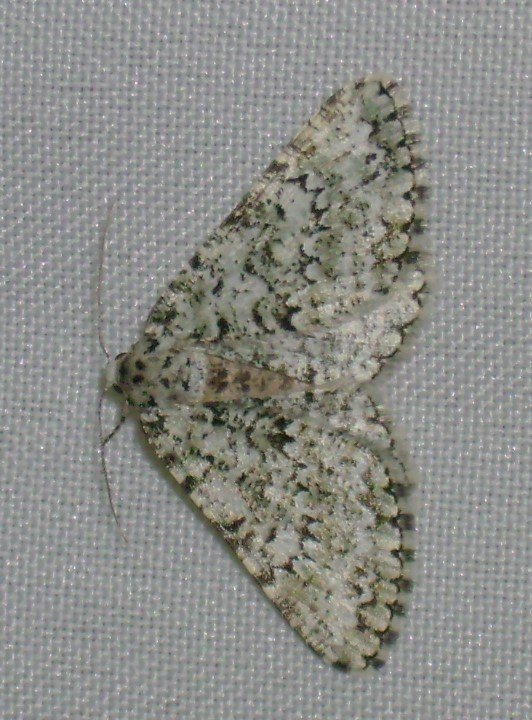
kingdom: Animalia
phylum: Arthropoda
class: Insecta
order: Lepidoptera
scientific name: Lepidoptera
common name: Butterflies
